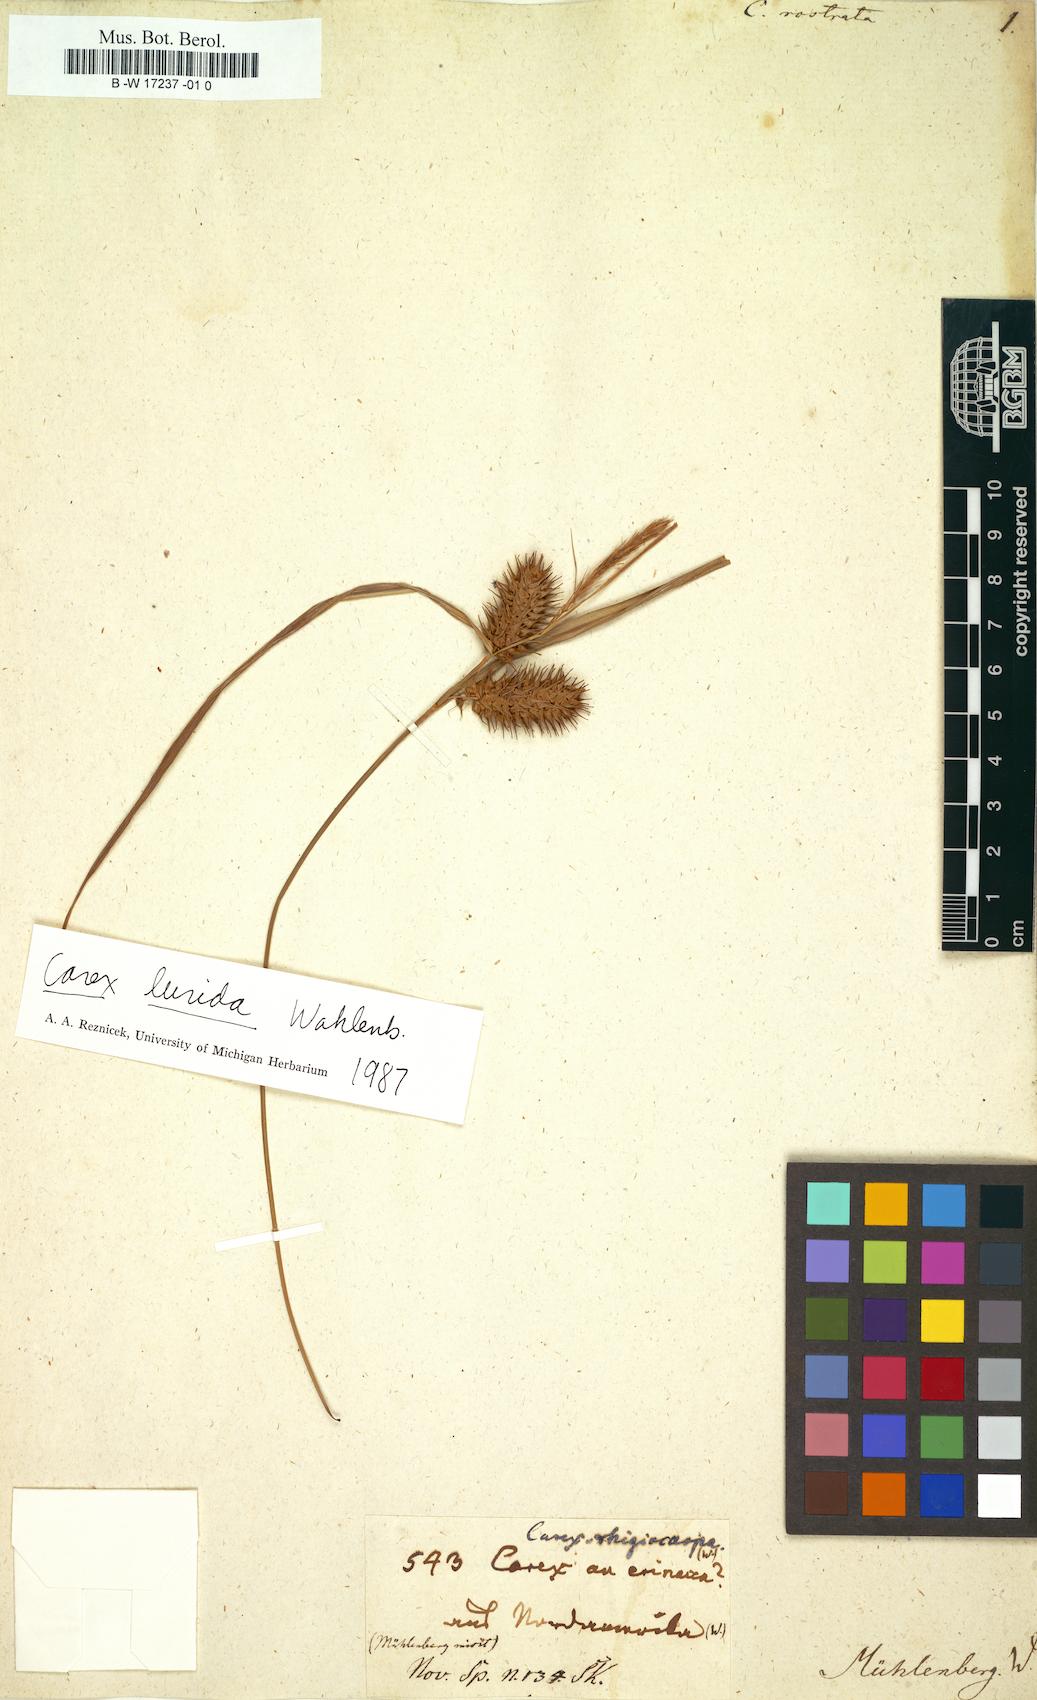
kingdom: Plantae
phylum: Tracheophyta
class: Liliopsida
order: Poales
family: Cyperaceae
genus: Carex
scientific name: Carex michelii
